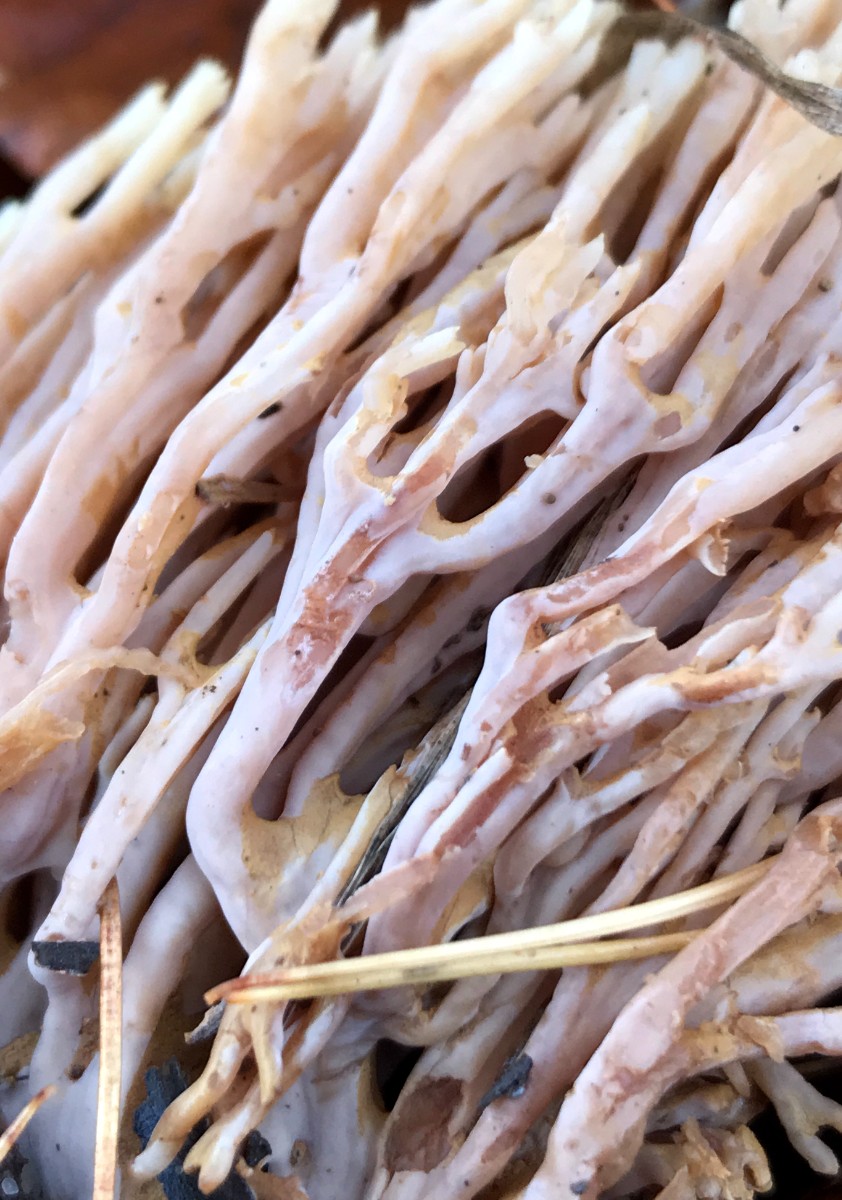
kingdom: Fungi
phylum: Basidiomycota
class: Agaricomycetes
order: Gomphales
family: Gomphaceae
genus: Ramaria
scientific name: Ramaria stricta
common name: rank koralsvamp
